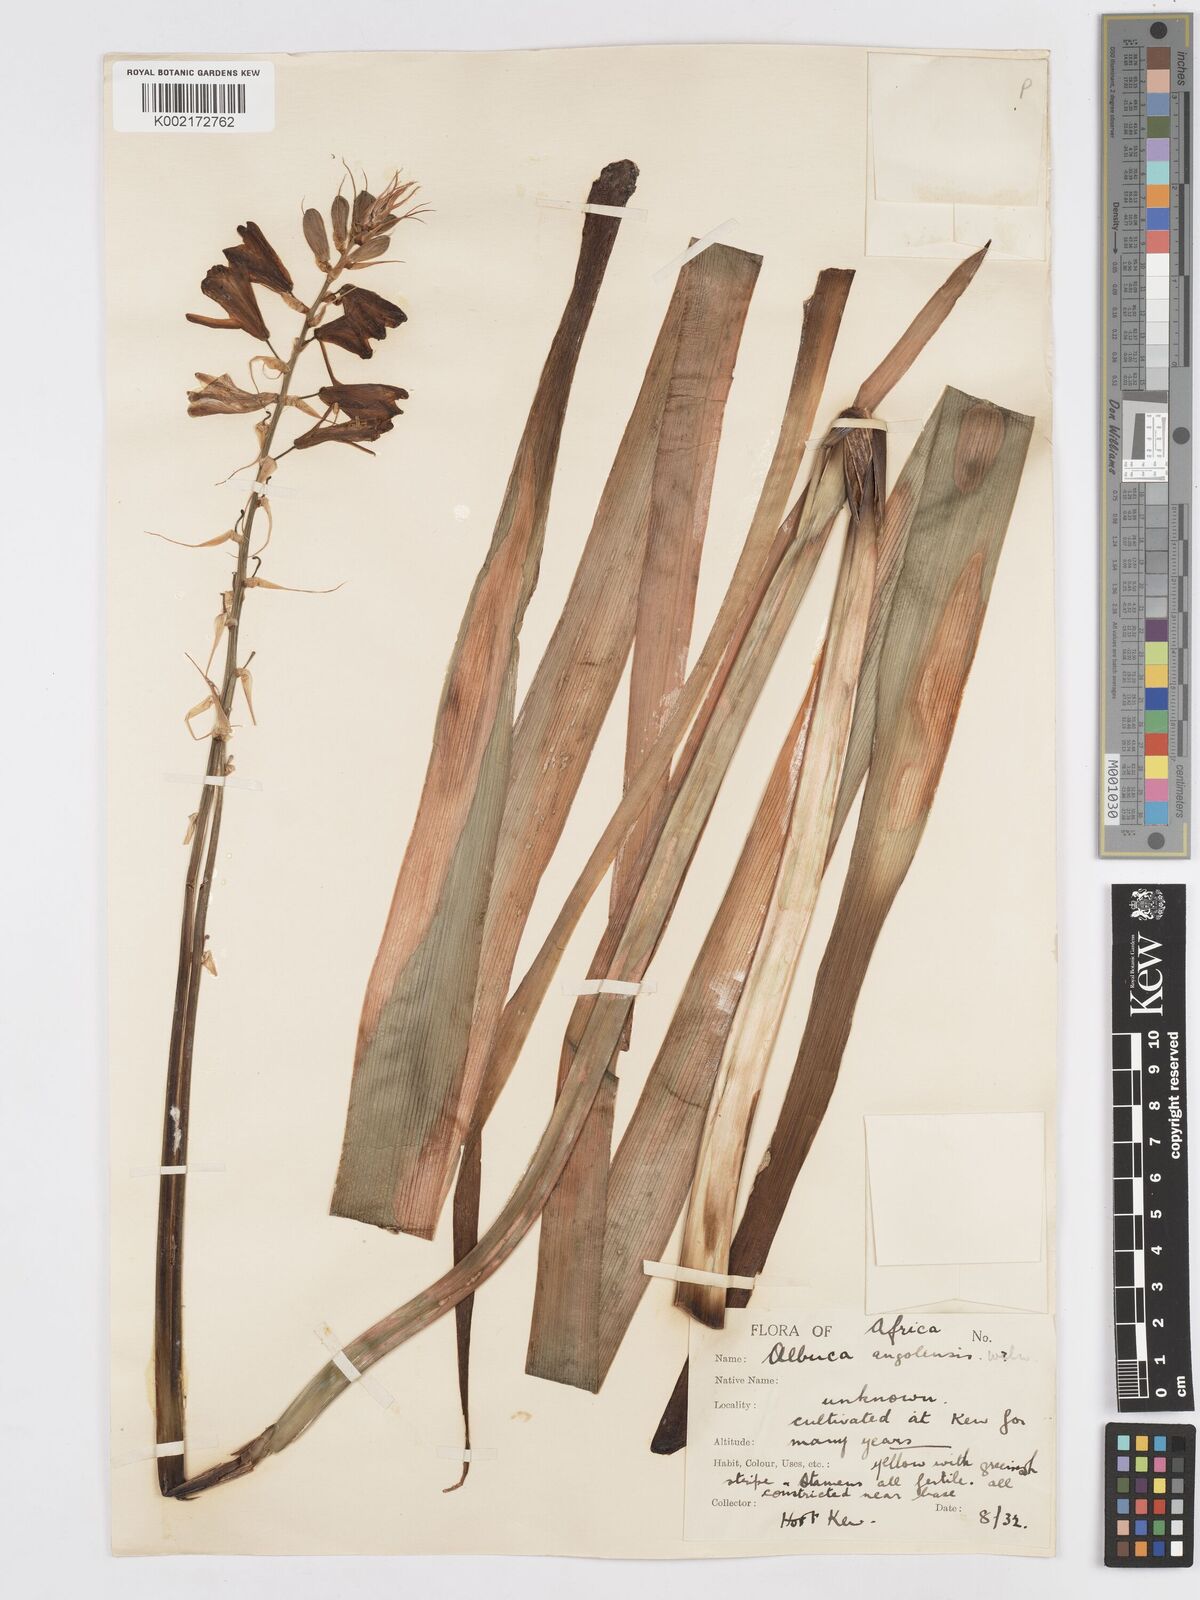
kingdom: Plantae
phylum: Tracheophyta
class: Liliopsida
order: Asparagales
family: Asparagaceae
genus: Albuca
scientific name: Albuca abyssinica
